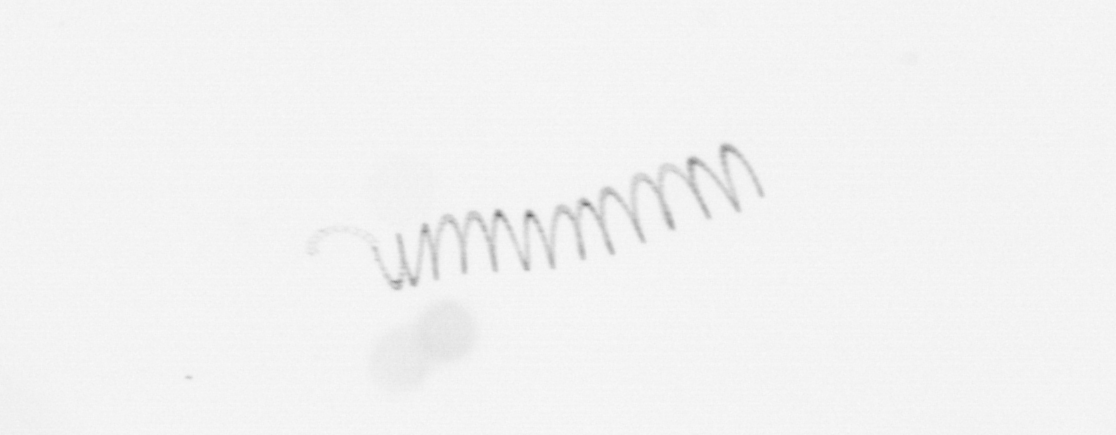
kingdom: Chromista
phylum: Ochrophyta
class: Bacillariophyceae
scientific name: Bacillariophyceae
